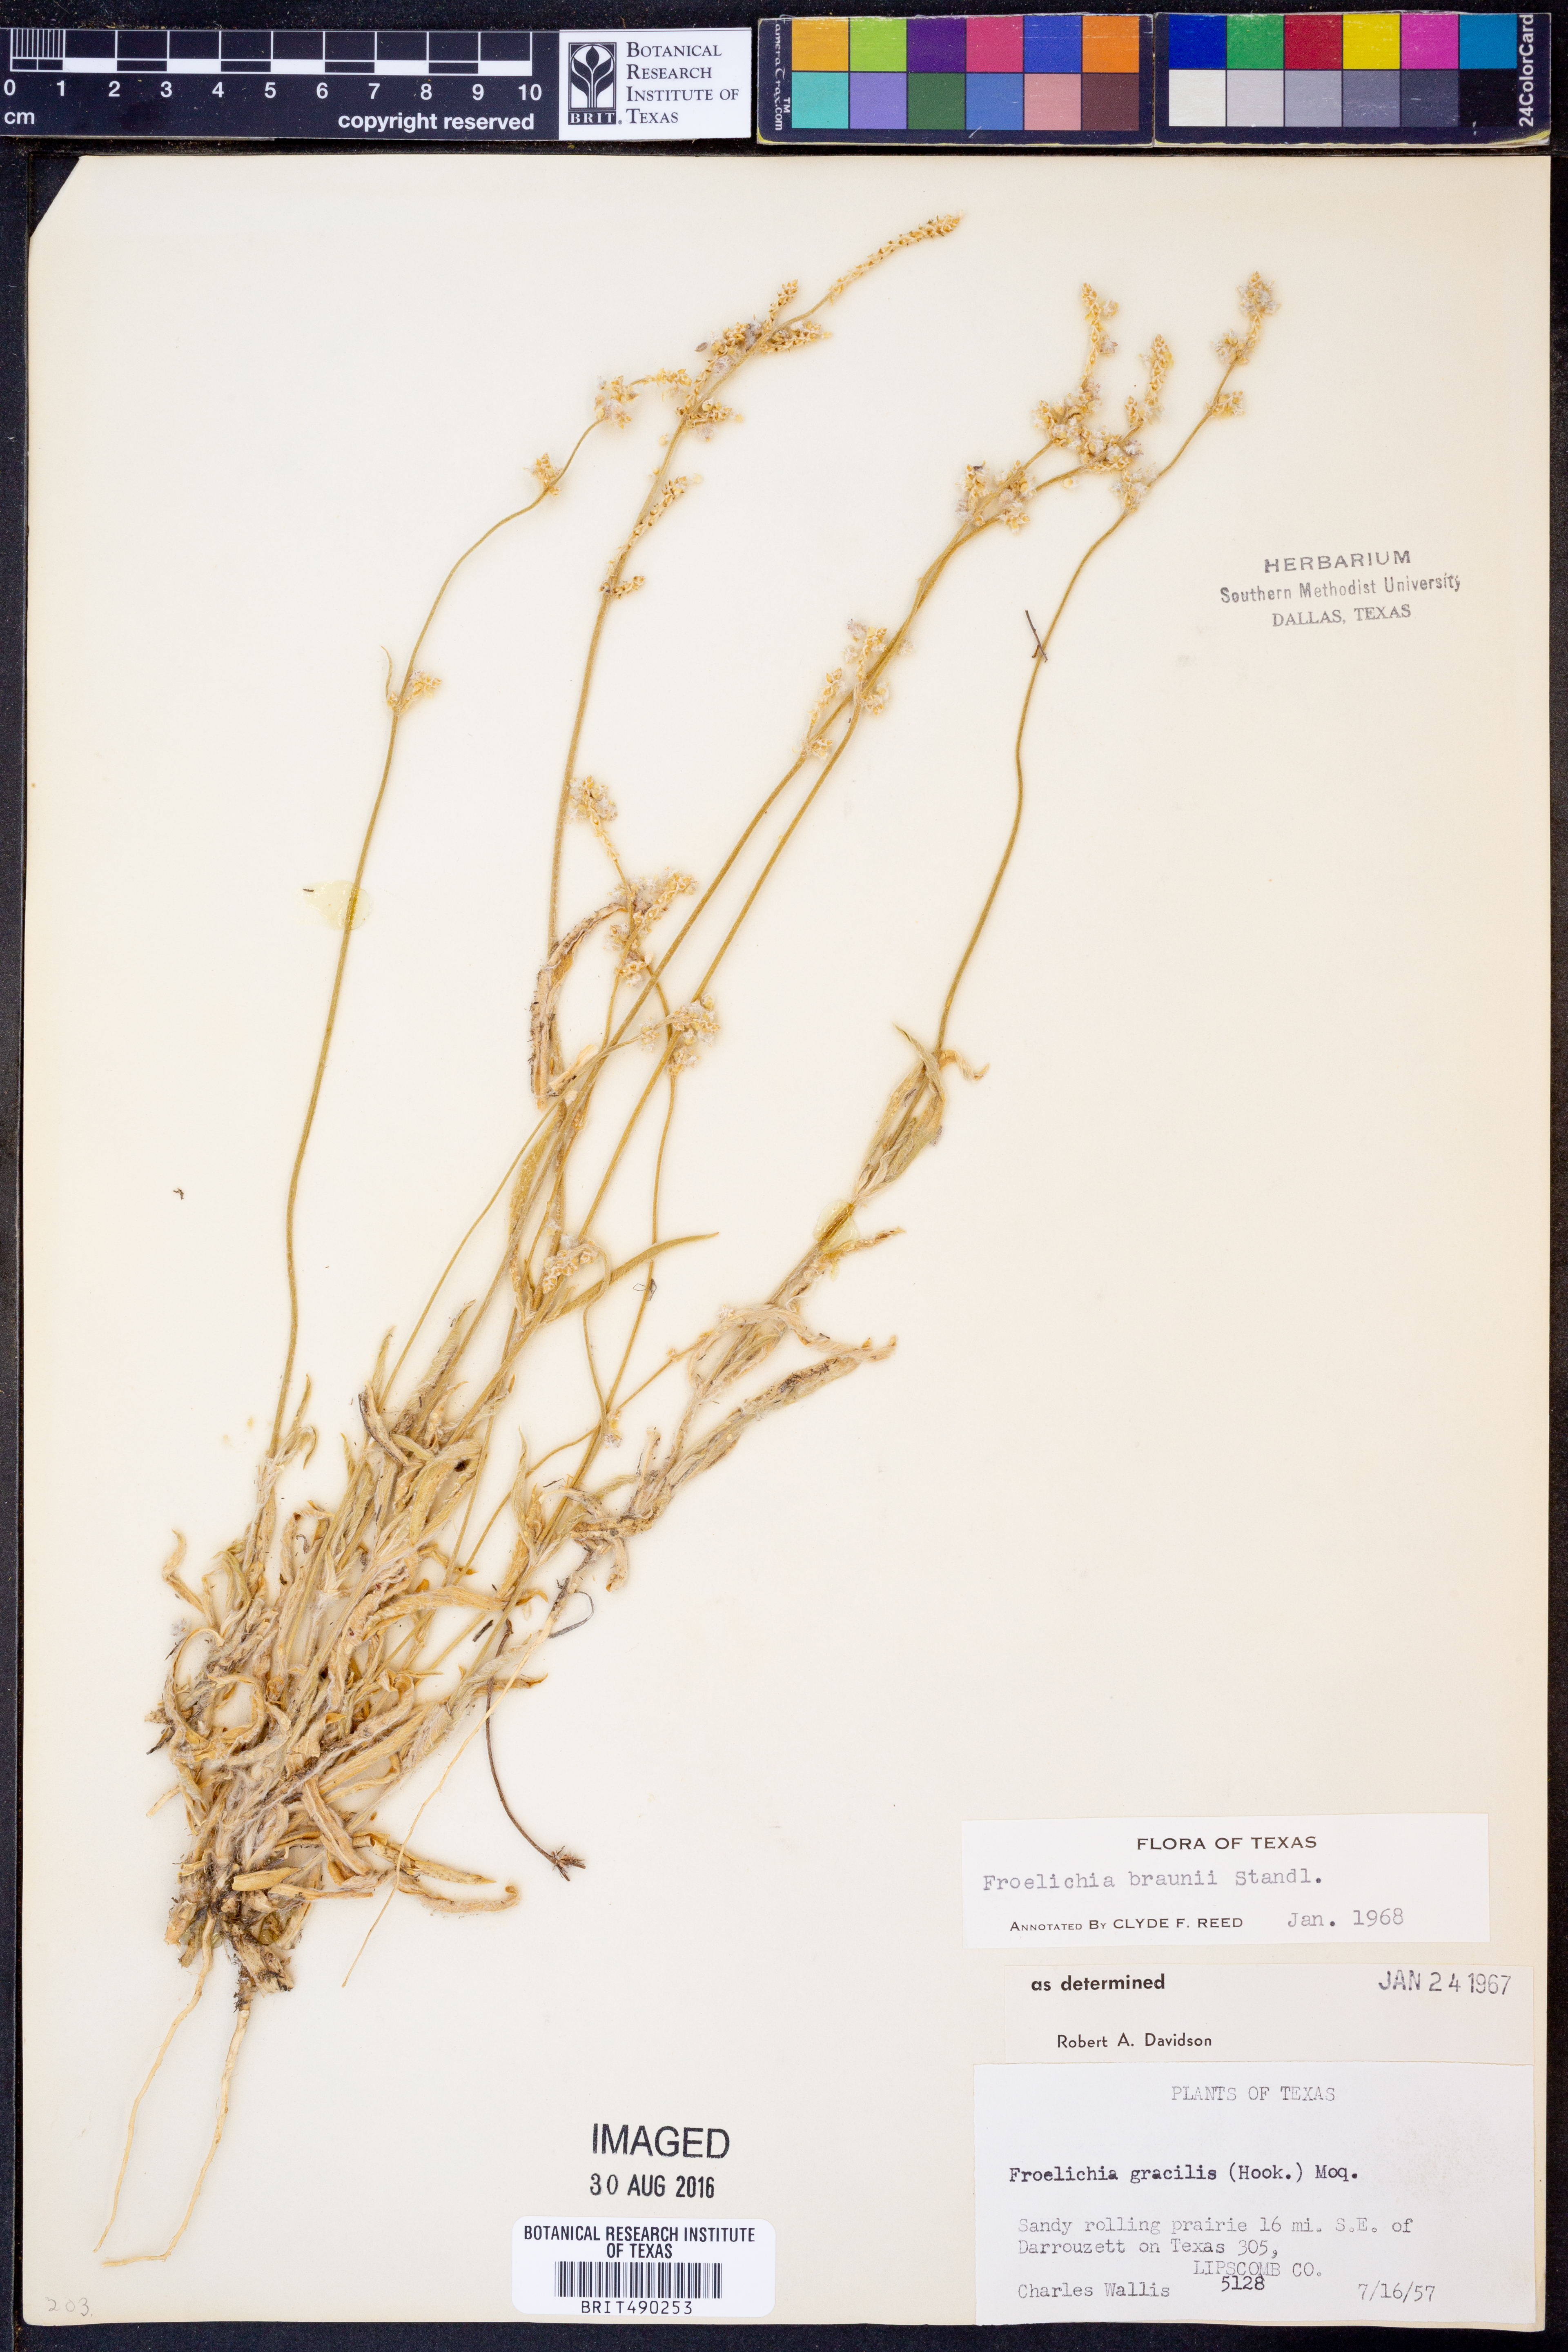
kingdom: Plantae
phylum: Tracheophyta
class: Magnoliopsida
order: Caryophyllales
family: Amaranthaceae
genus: Froelichia
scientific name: Froelichia gracilis
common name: Slender cottonweed
